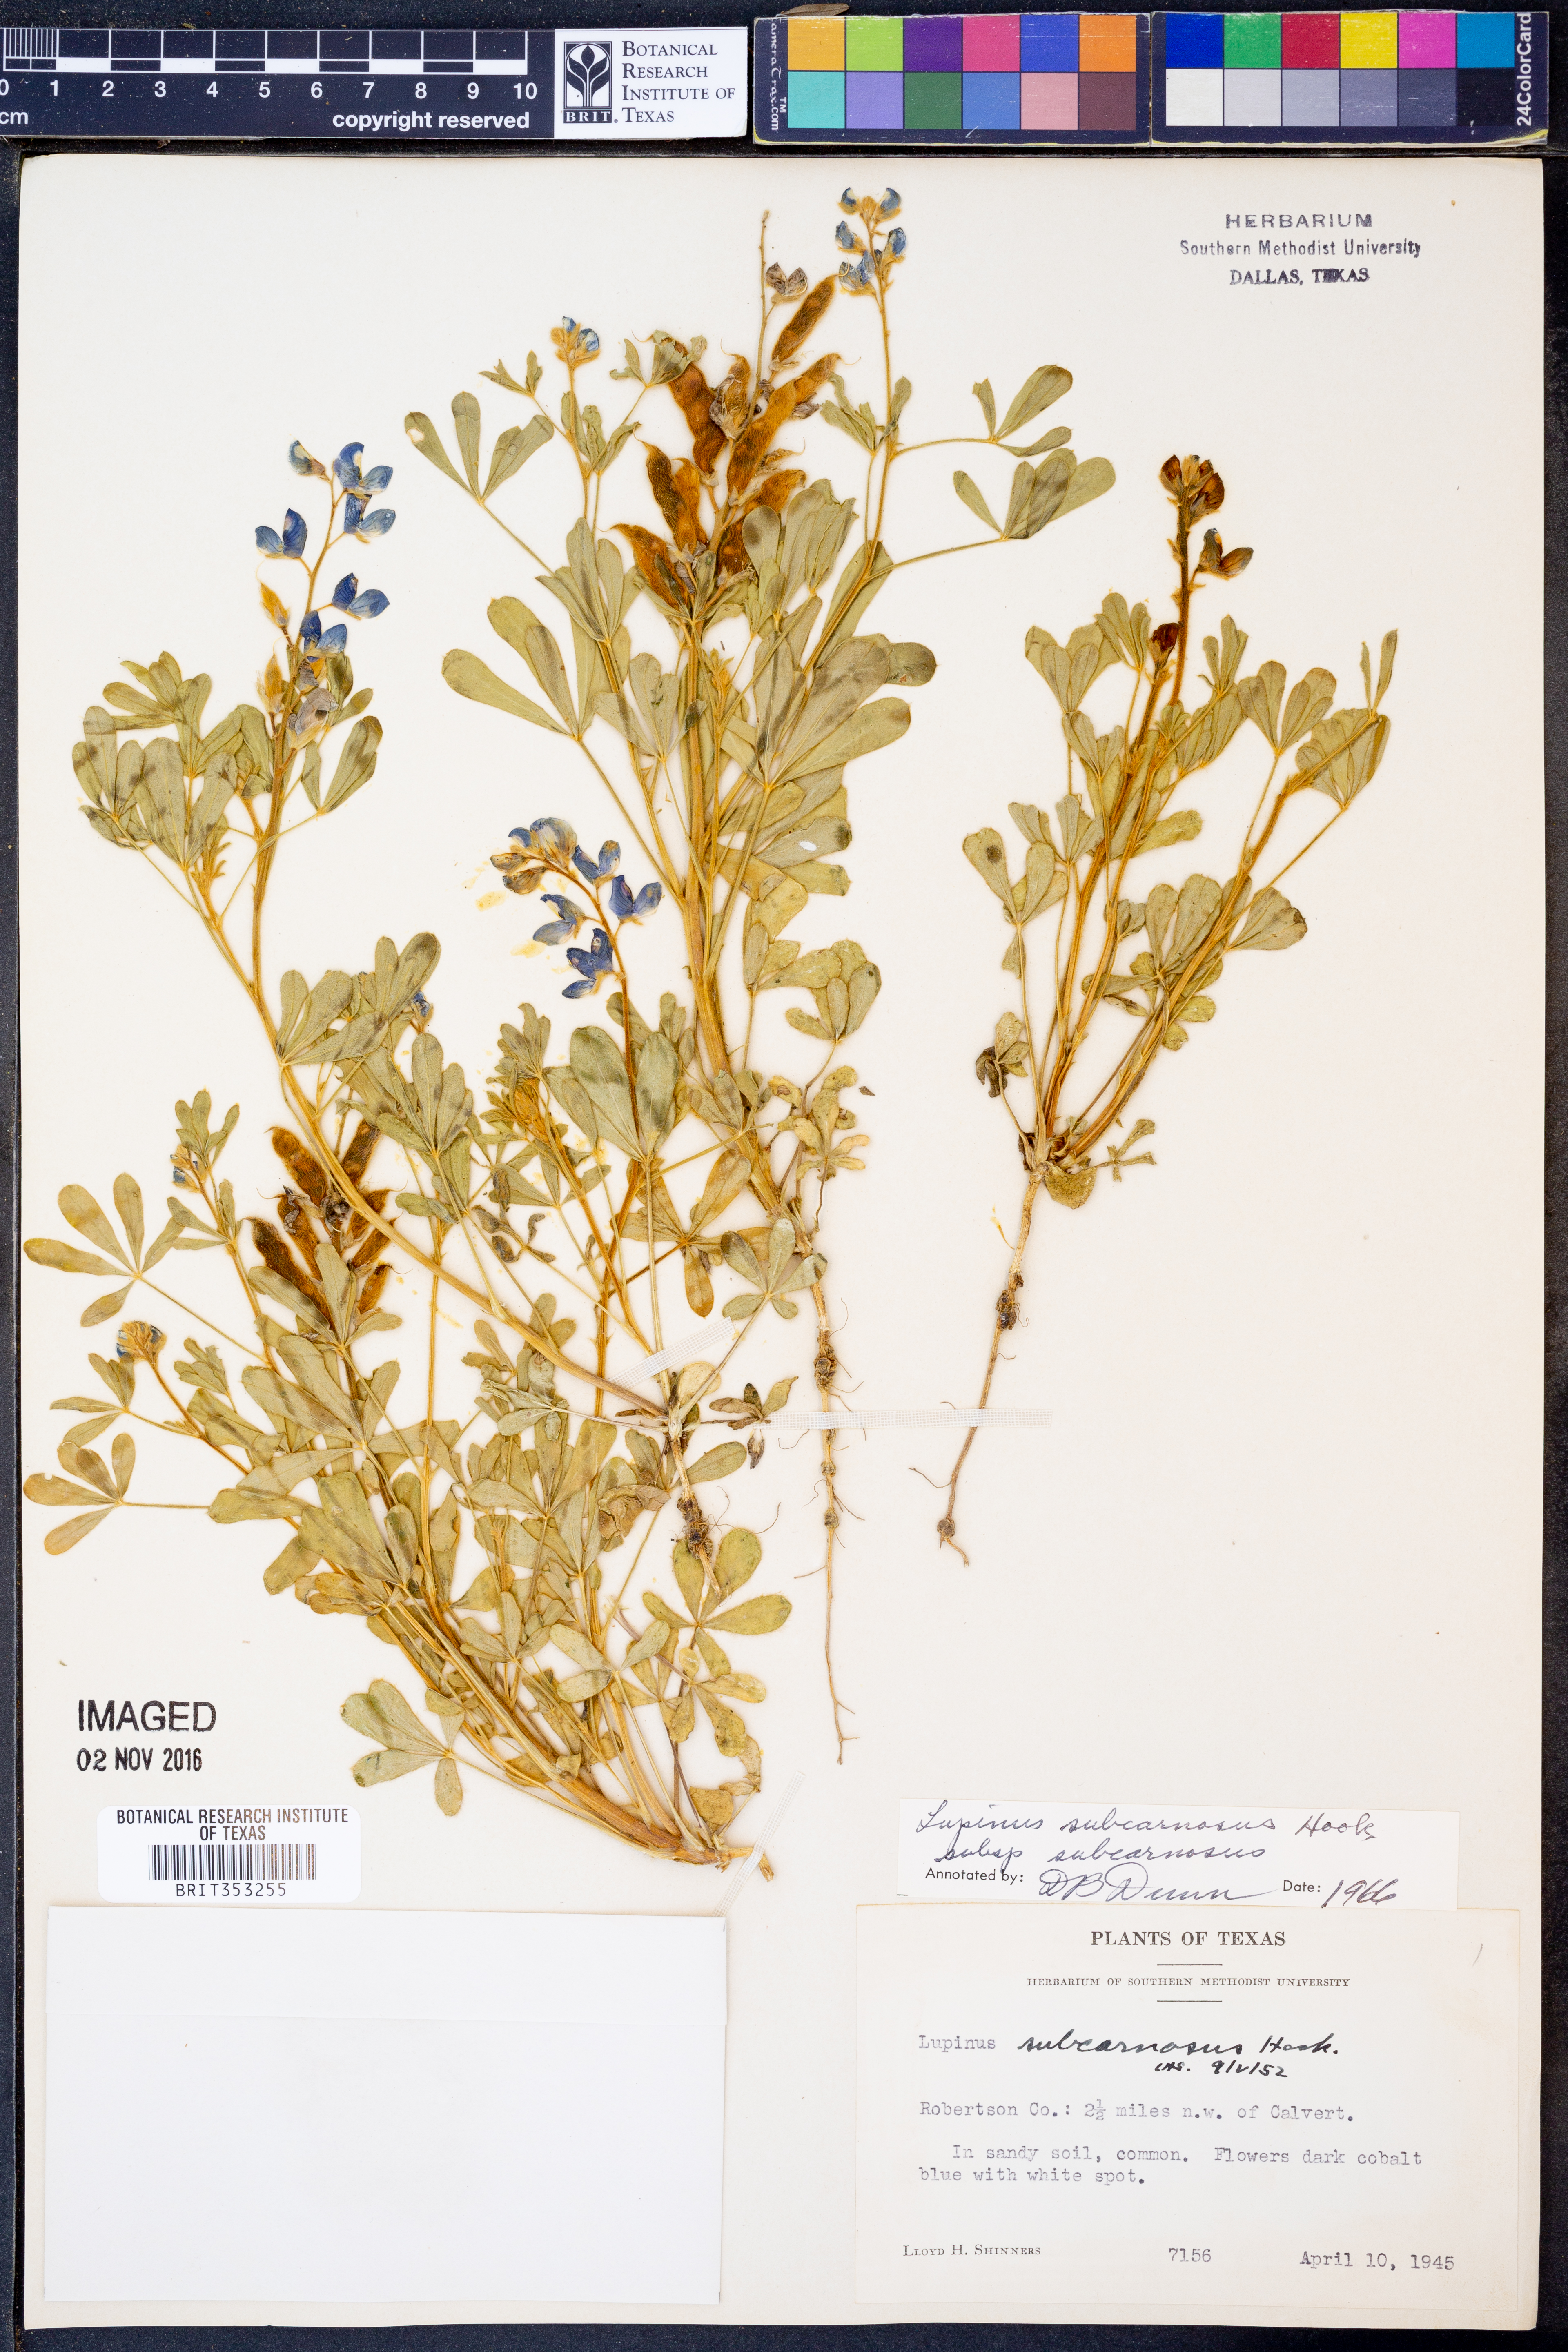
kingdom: Plantae
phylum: Tracheophyta
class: Magnoliopsida
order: Fabales
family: Fabaceae
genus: Lupinus
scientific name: Lupinus subcarnosus
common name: Texas bluebonnet
